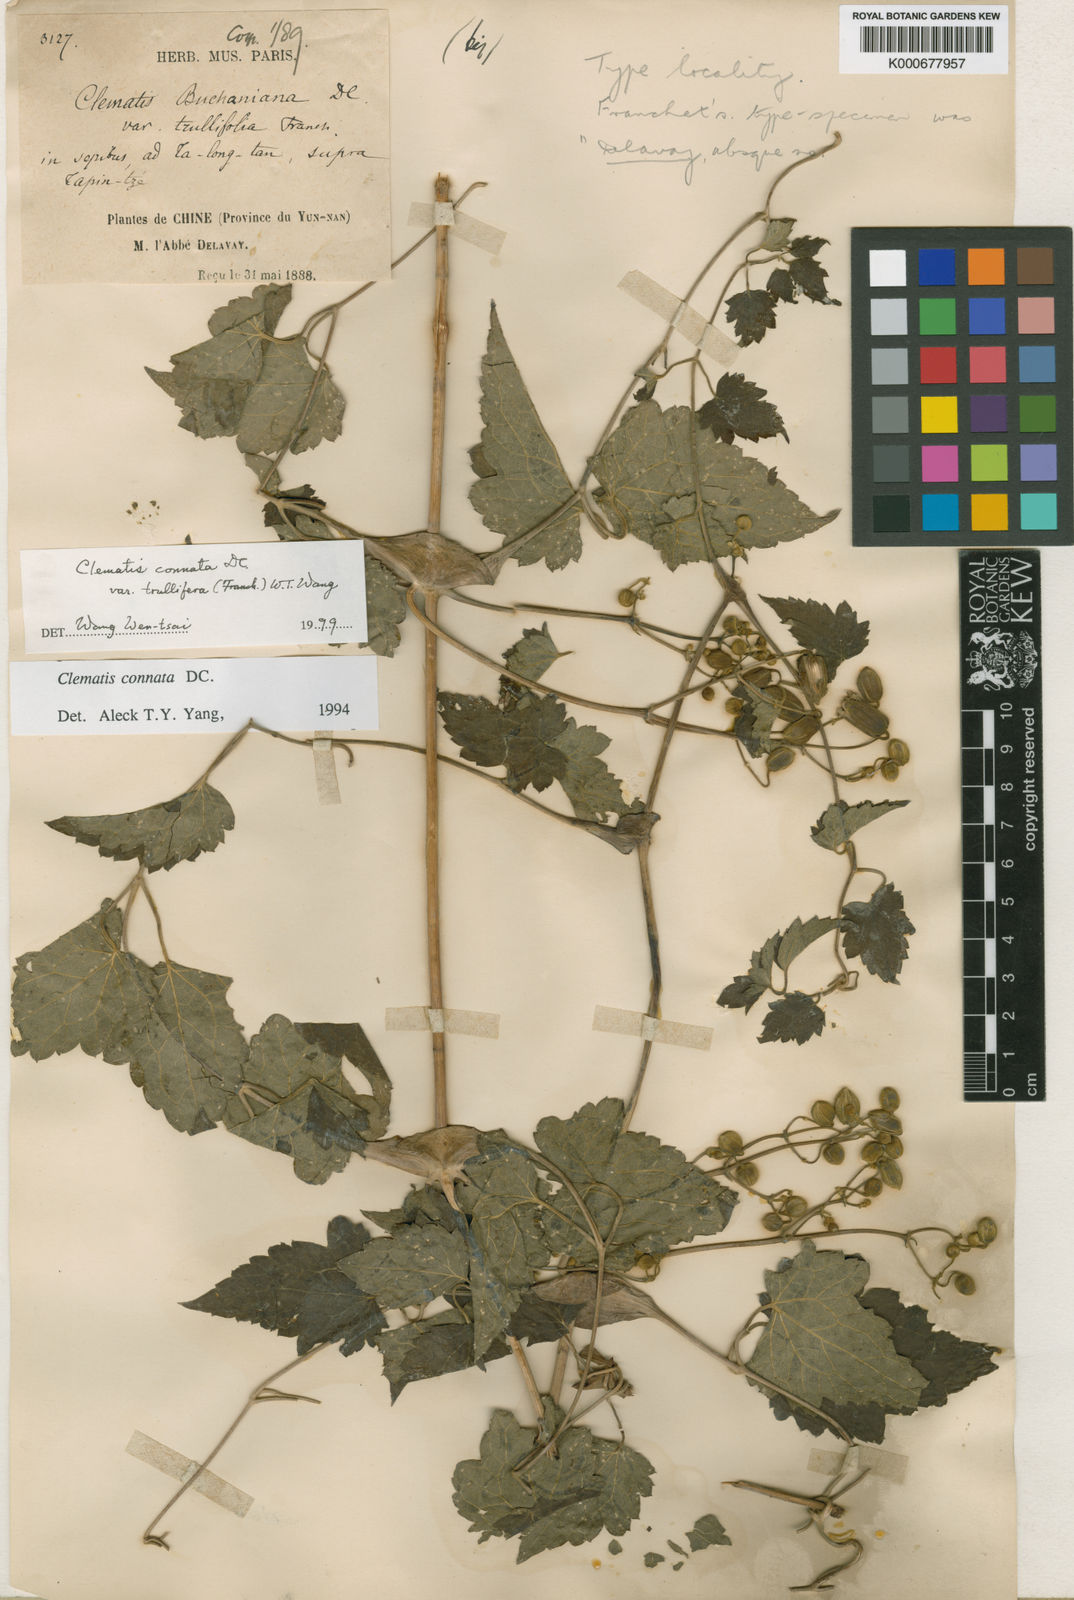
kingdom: Plantae
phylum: Tracheophyta
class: Magnoliopsida
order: Ranunculales
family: Ranunculaceae
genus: Clematis
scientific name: Clematis connata
